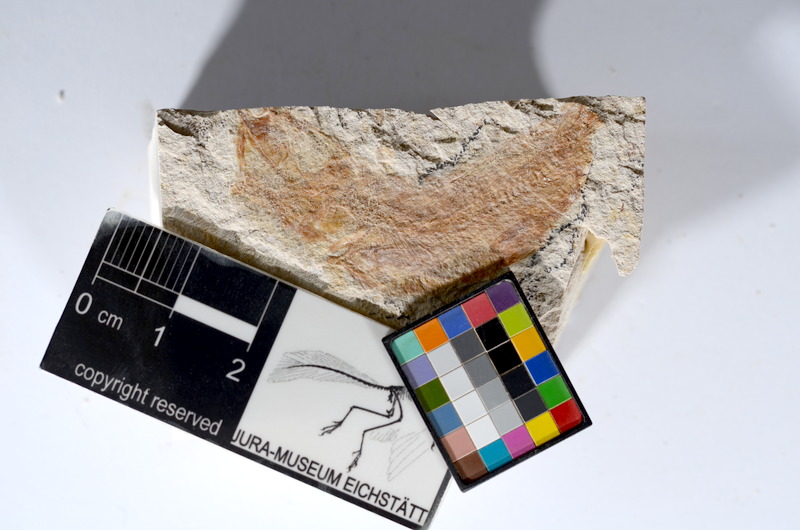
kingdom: Animalia
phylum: Chordata
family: Ascalaboidae
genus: Tharsis
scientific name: Tharsis dubius
